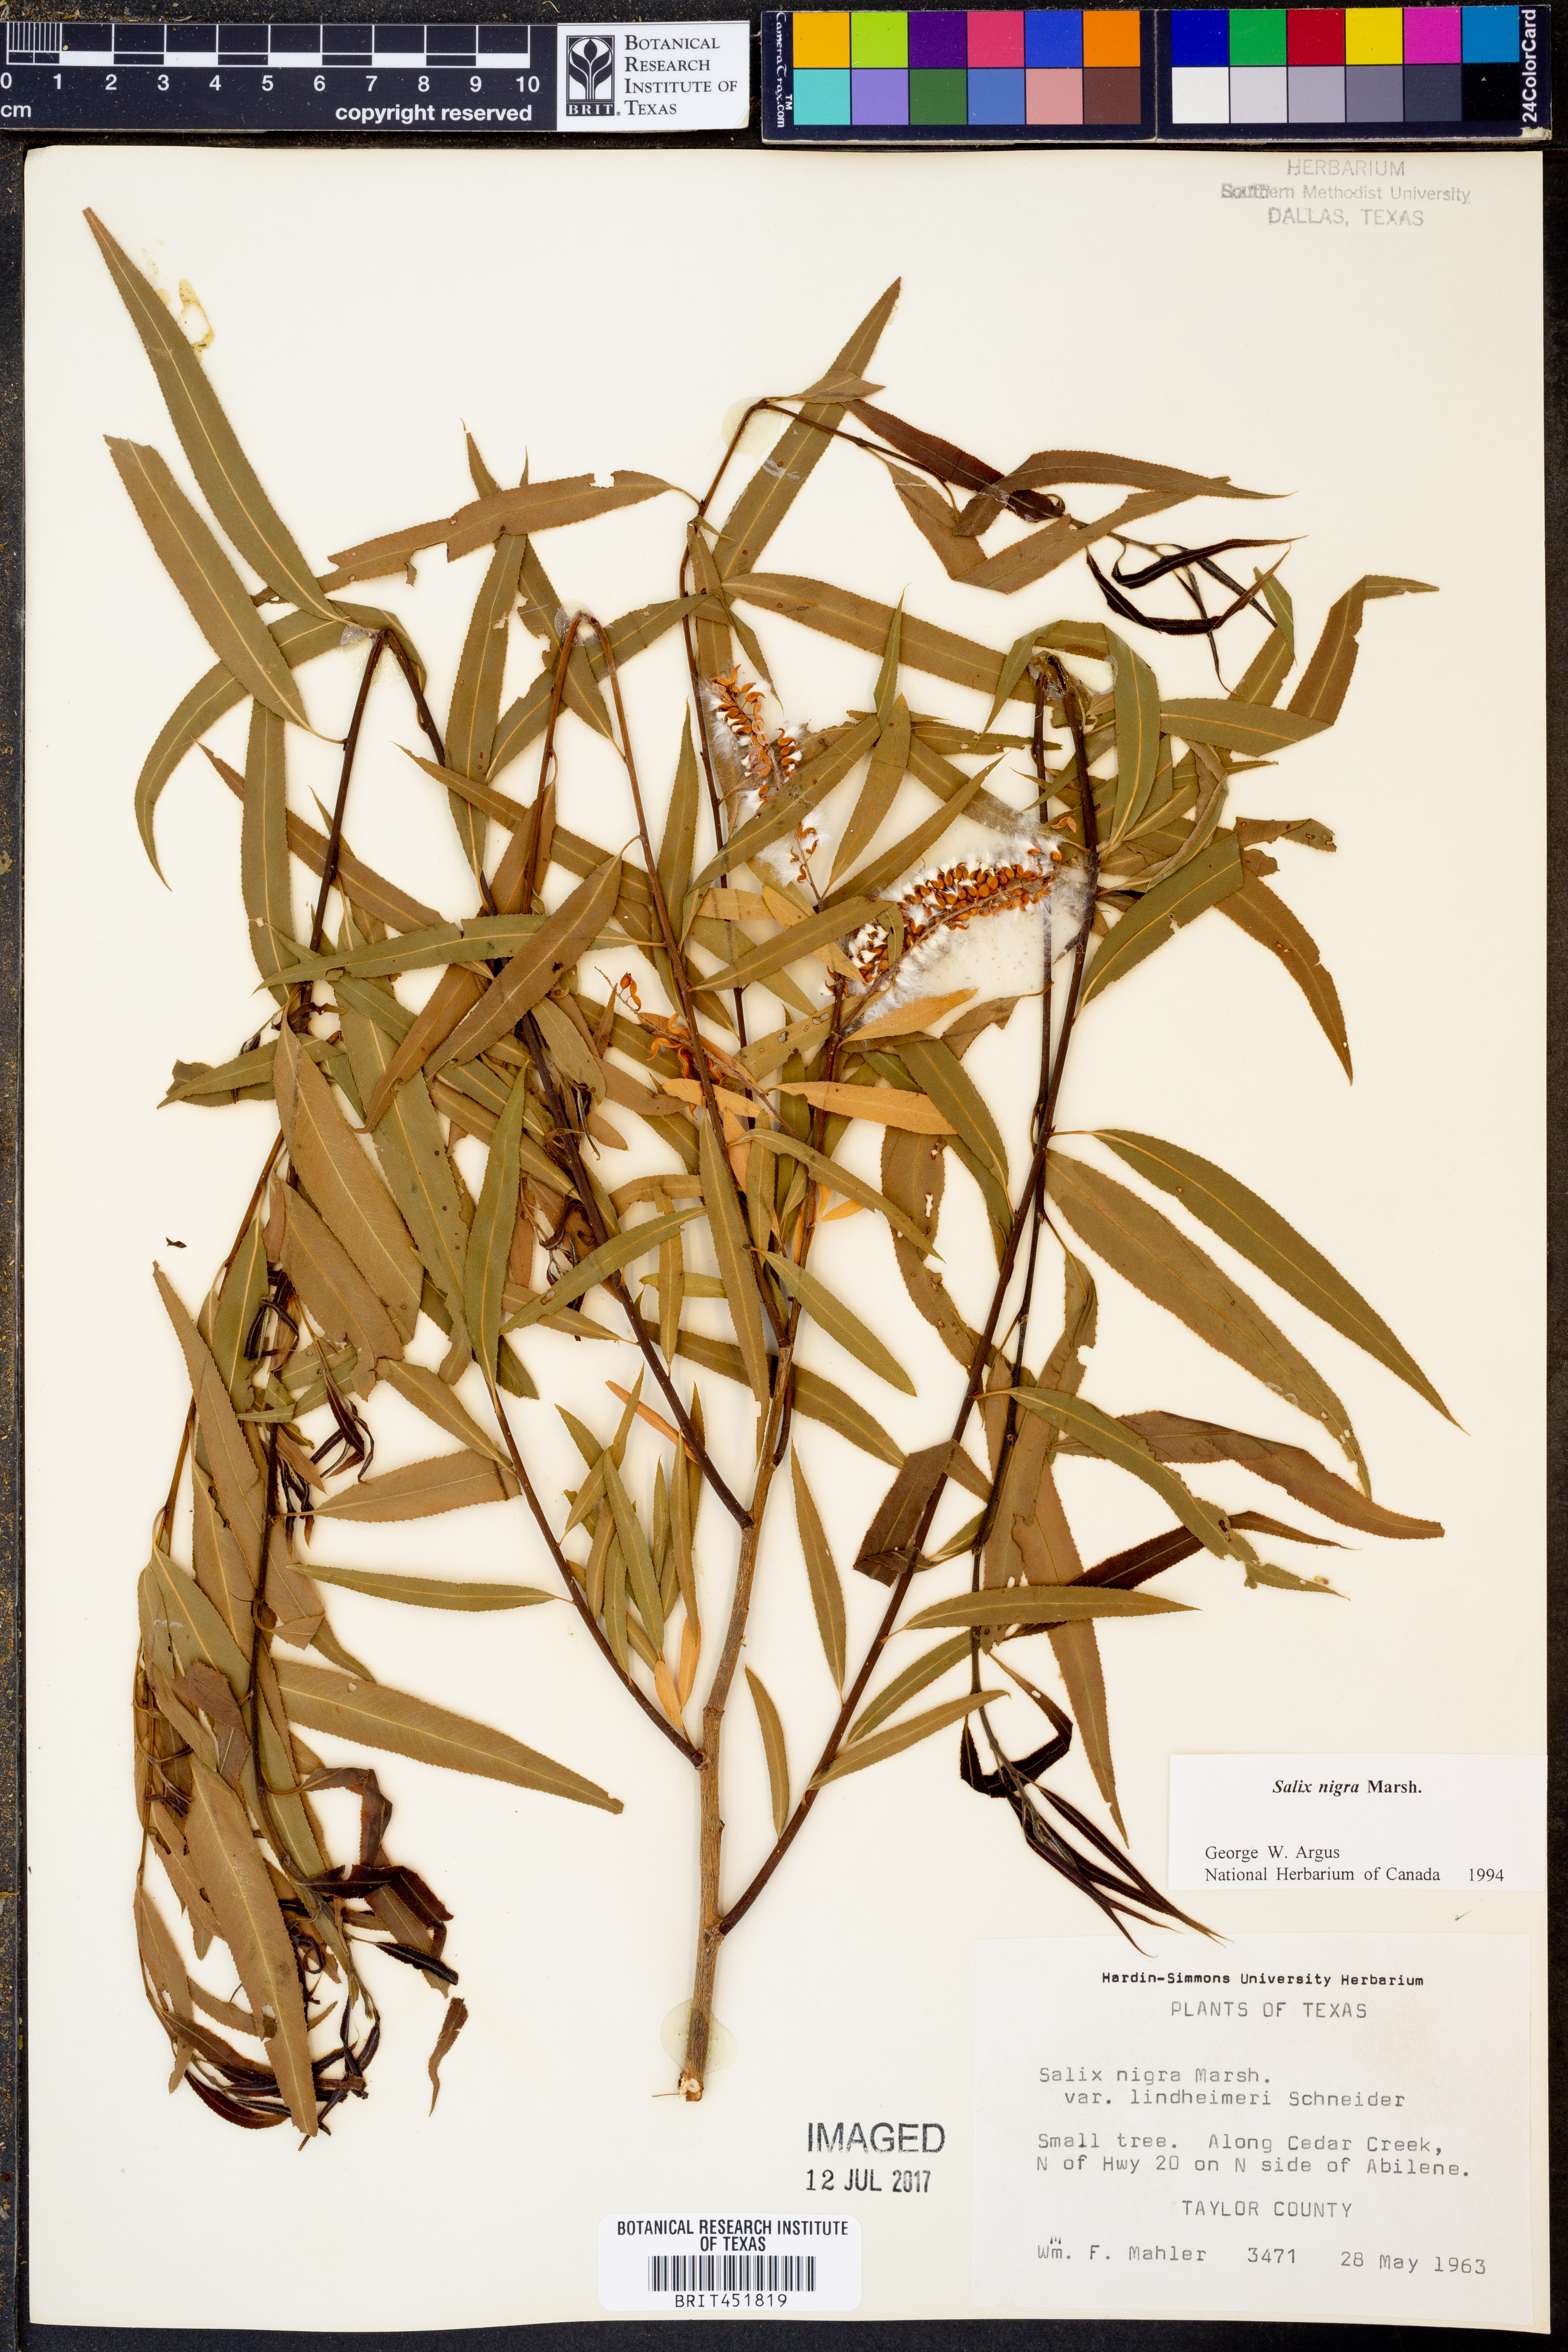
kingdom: Plantae
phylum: Tracheophyta
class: Magnoliopsida
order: Malpighiales
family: Salicaceae
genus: Salix
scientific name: Salix nigra
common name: Black willow
